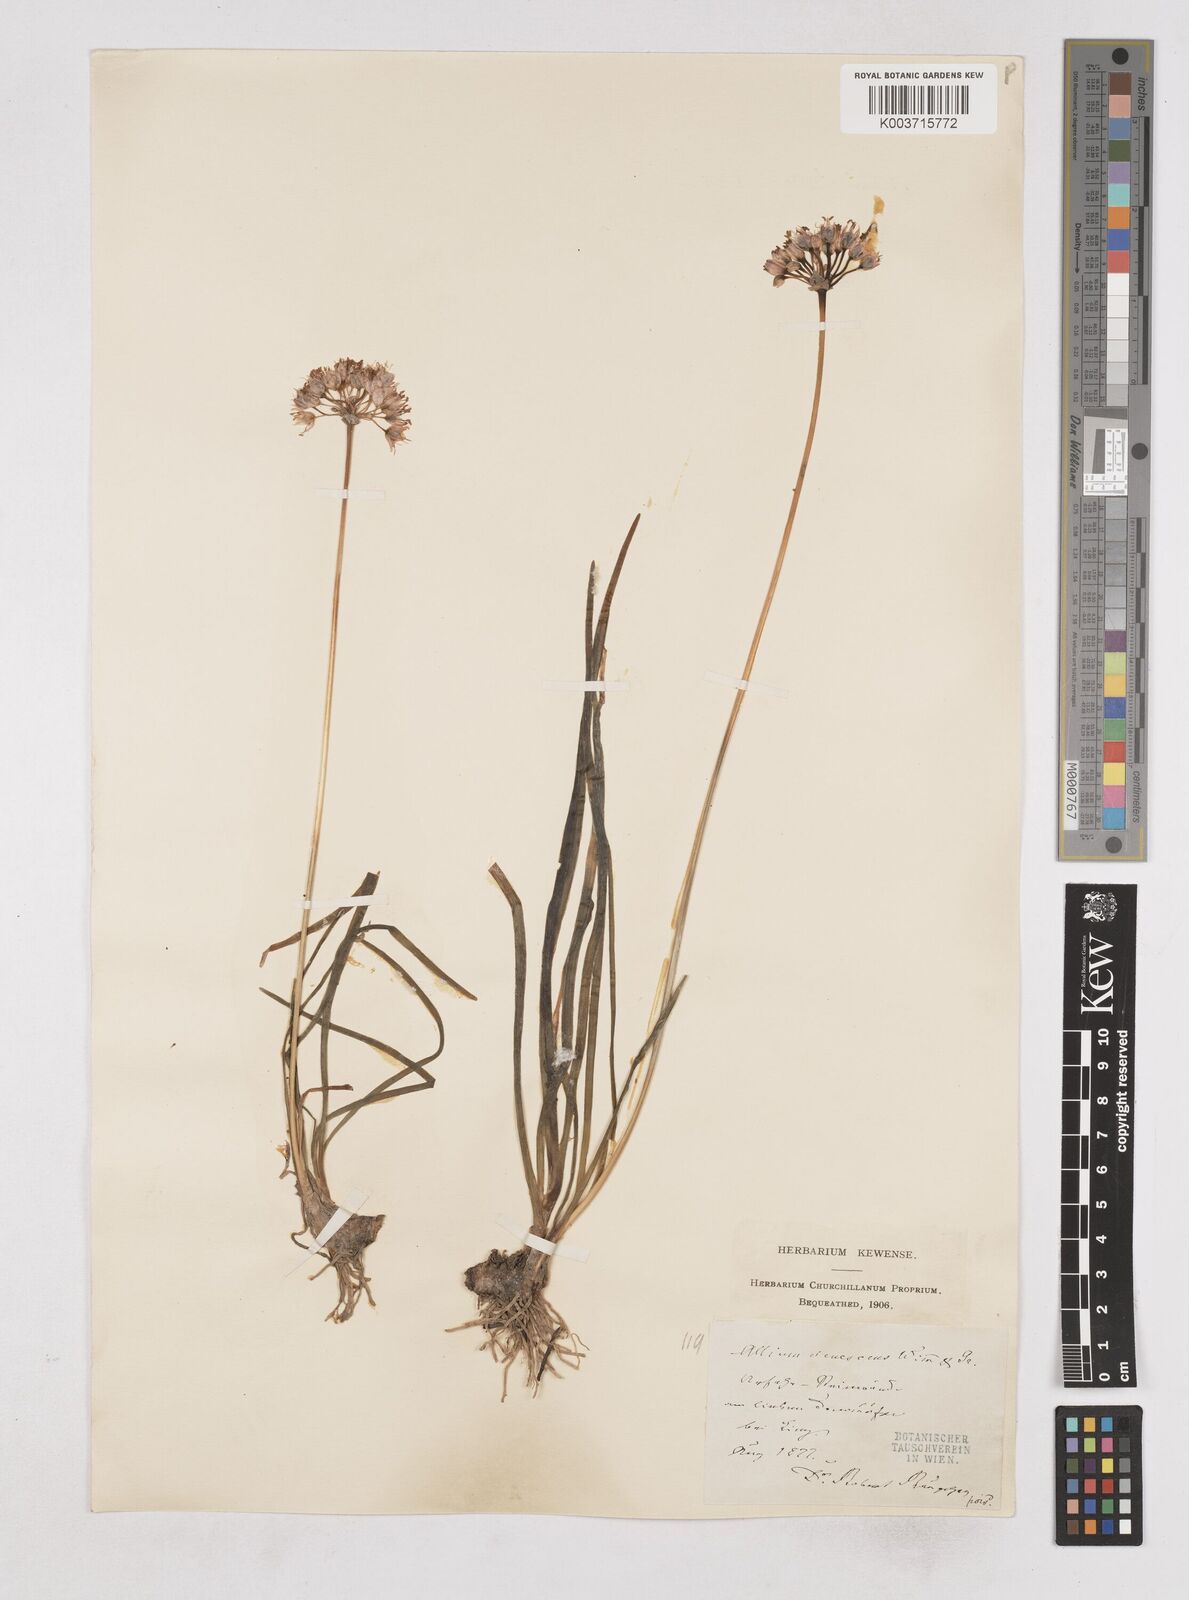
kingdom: Plantae
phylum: Tracheophyta
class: Liliopsida
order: Asparagales
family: Amaryllidaceae
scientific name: Amaryllidaceae
